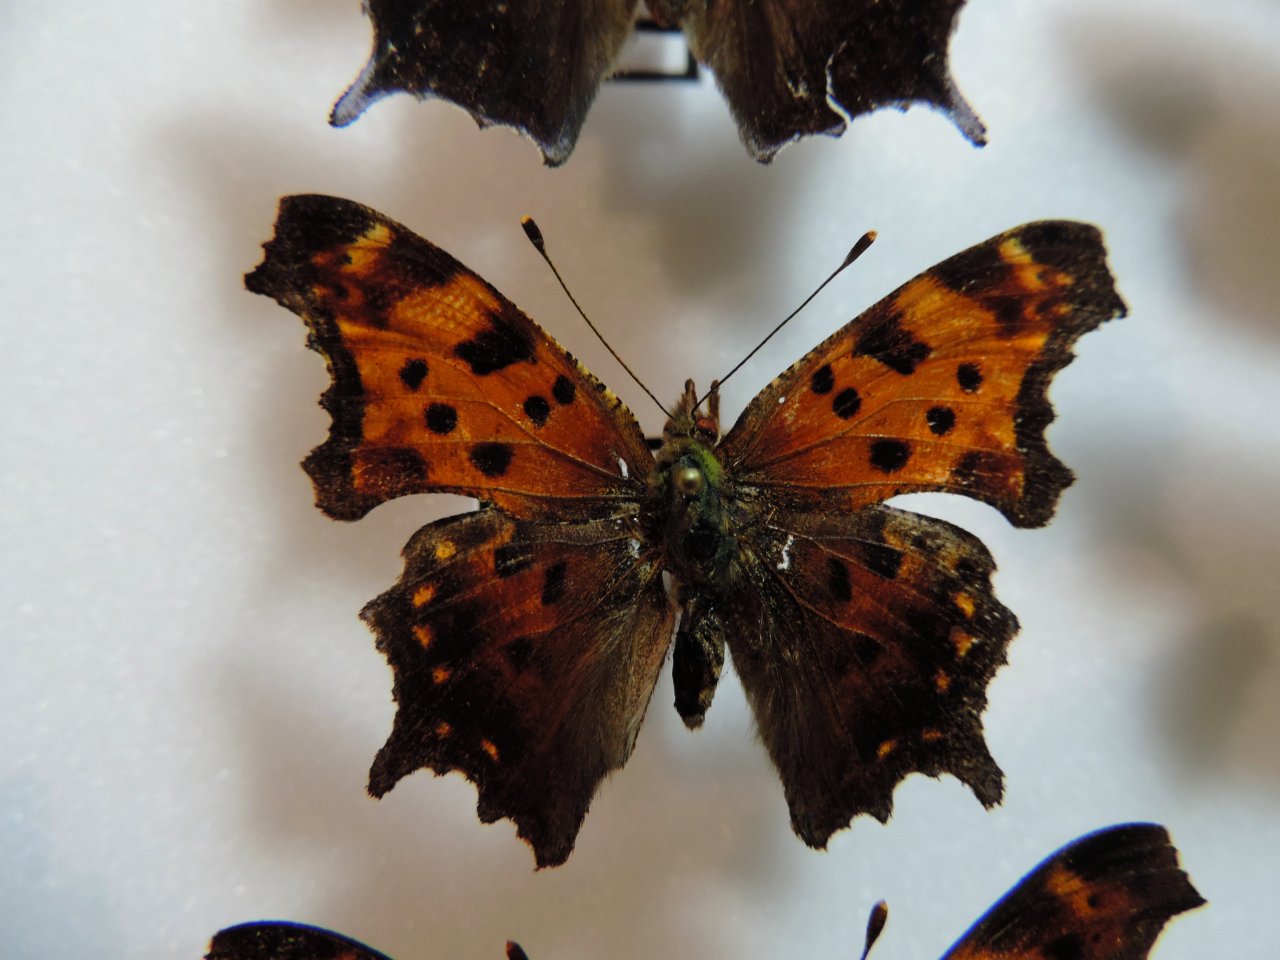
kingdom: Animalia
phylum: Arthropoda
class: Insecta
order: Lepidoptera
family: Nymphalidae
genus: Polygonia
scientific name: Polygonia comma
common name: Eastern Comma
